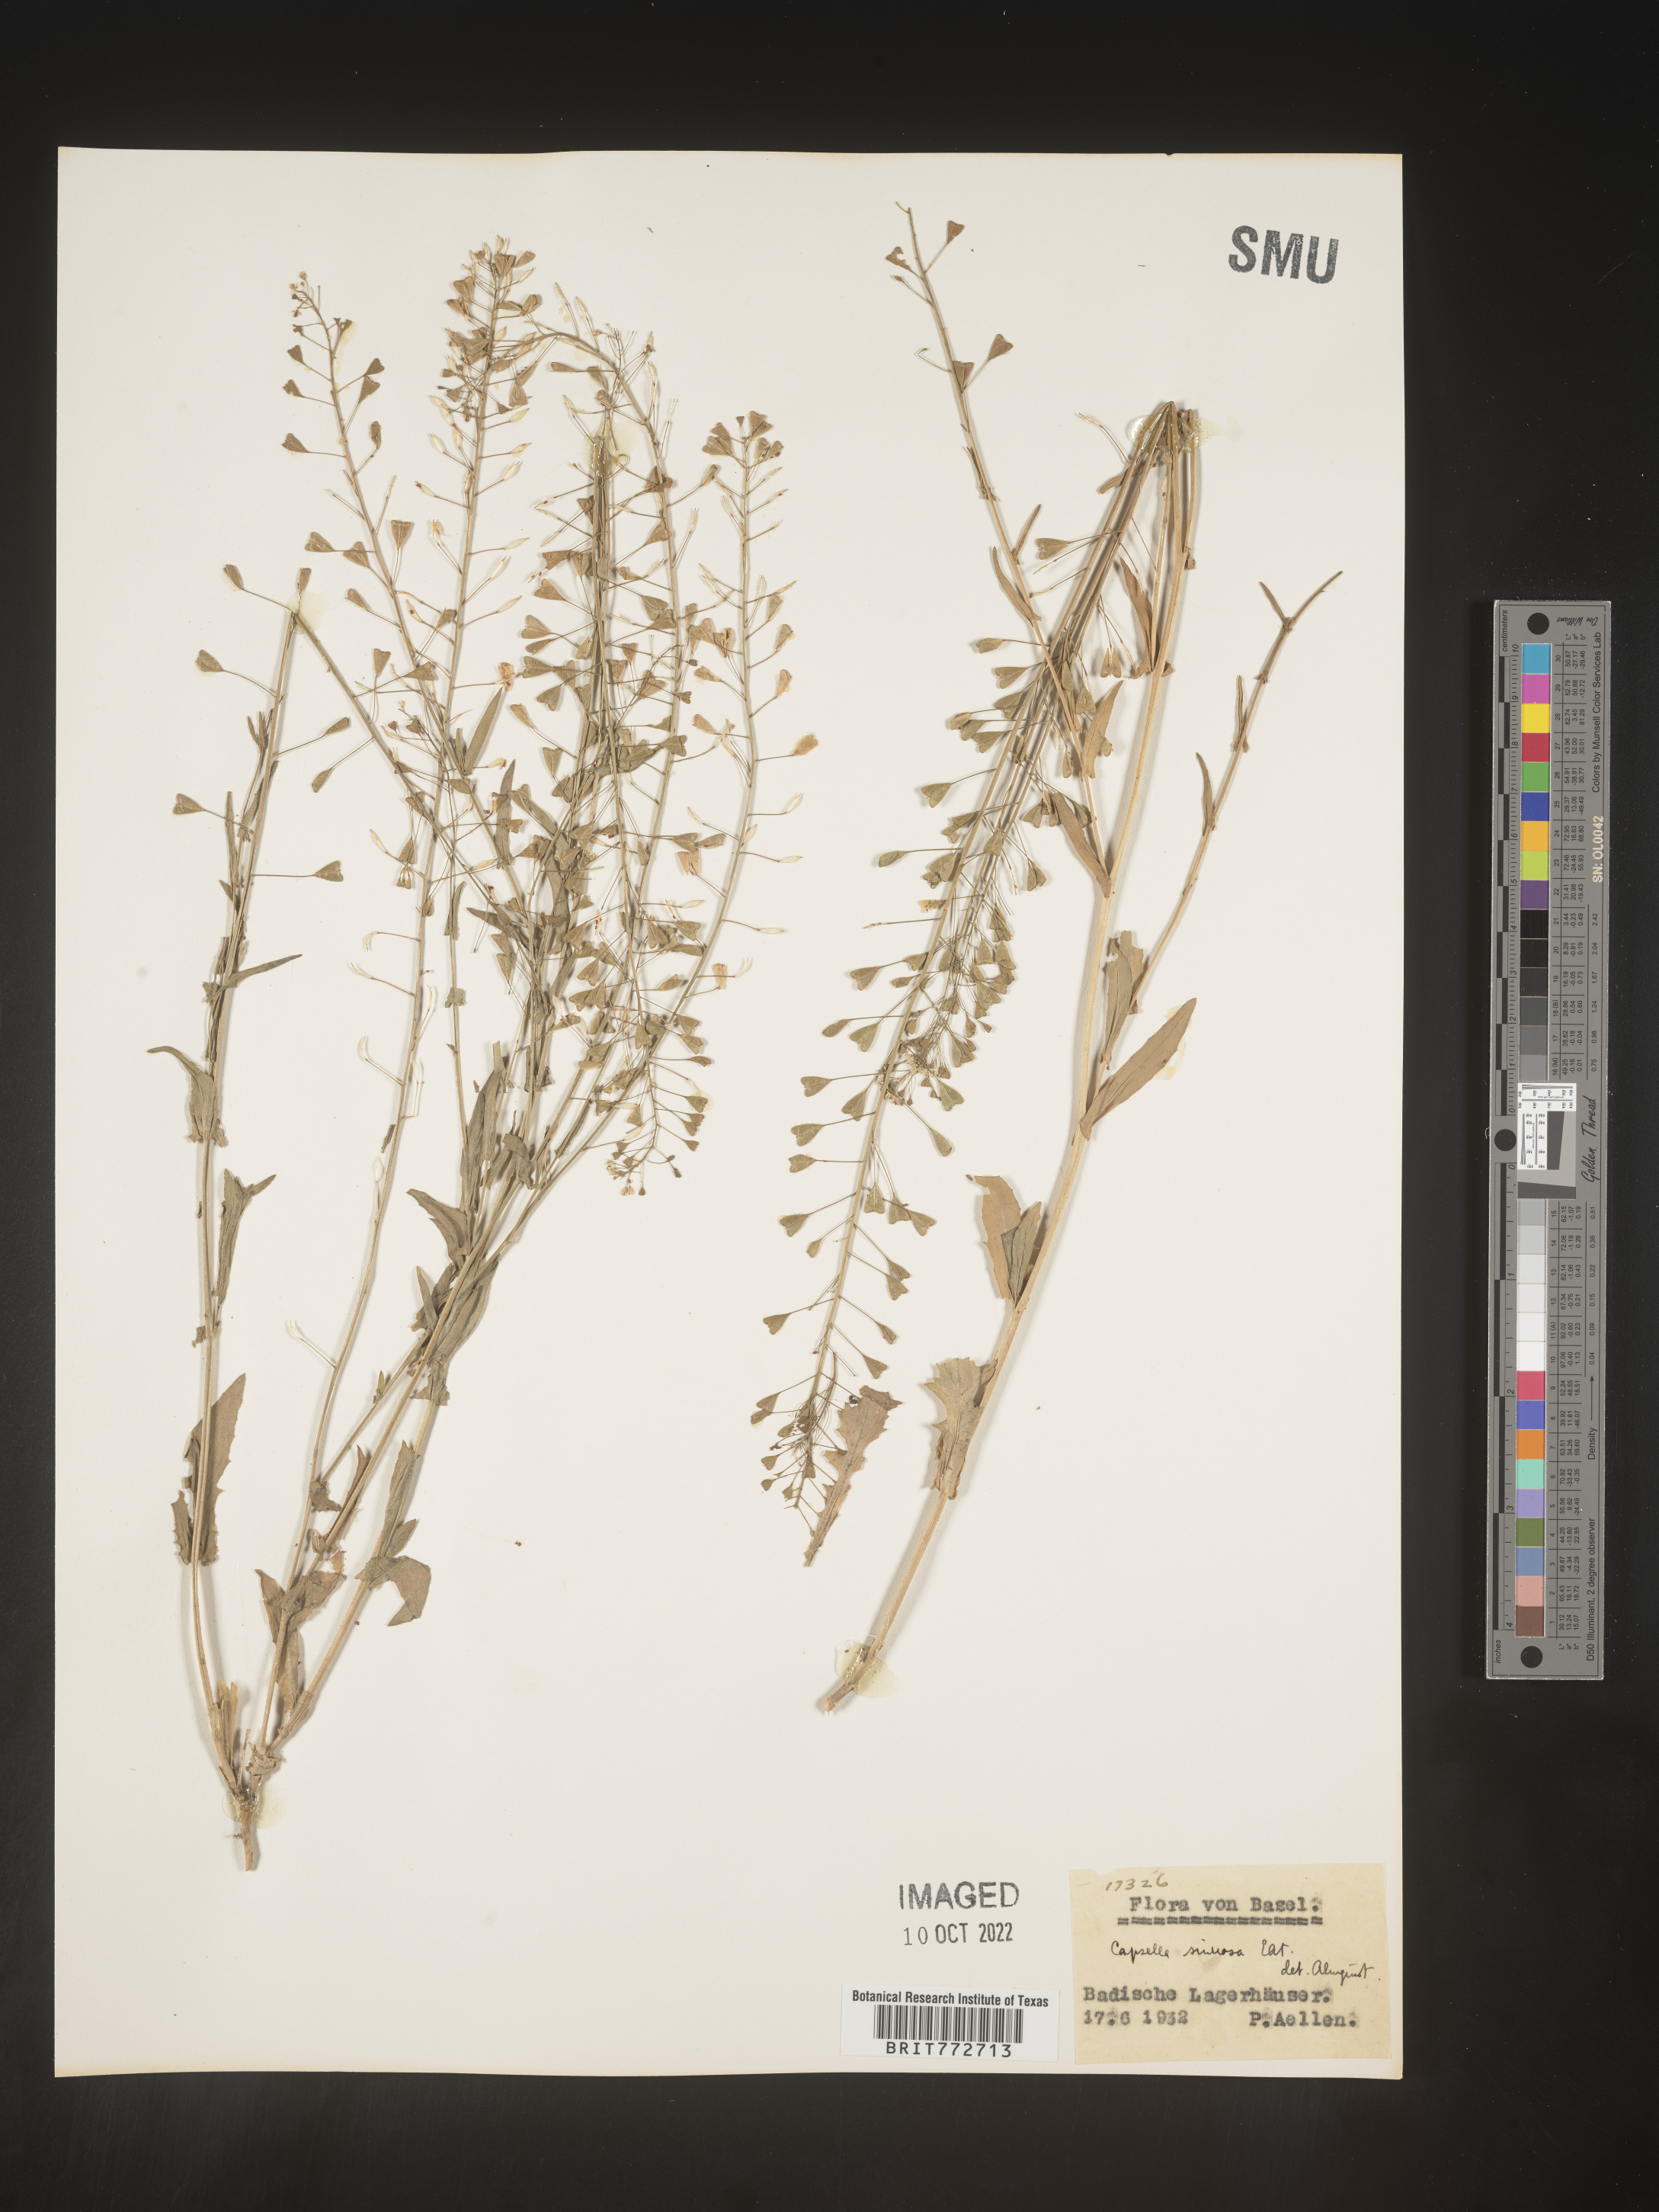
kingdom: Plantae
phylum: Tracheophyta
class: Magnoliopsida
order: Brassicales
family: Brassicaceae
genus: Capsella
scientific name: Capsella
